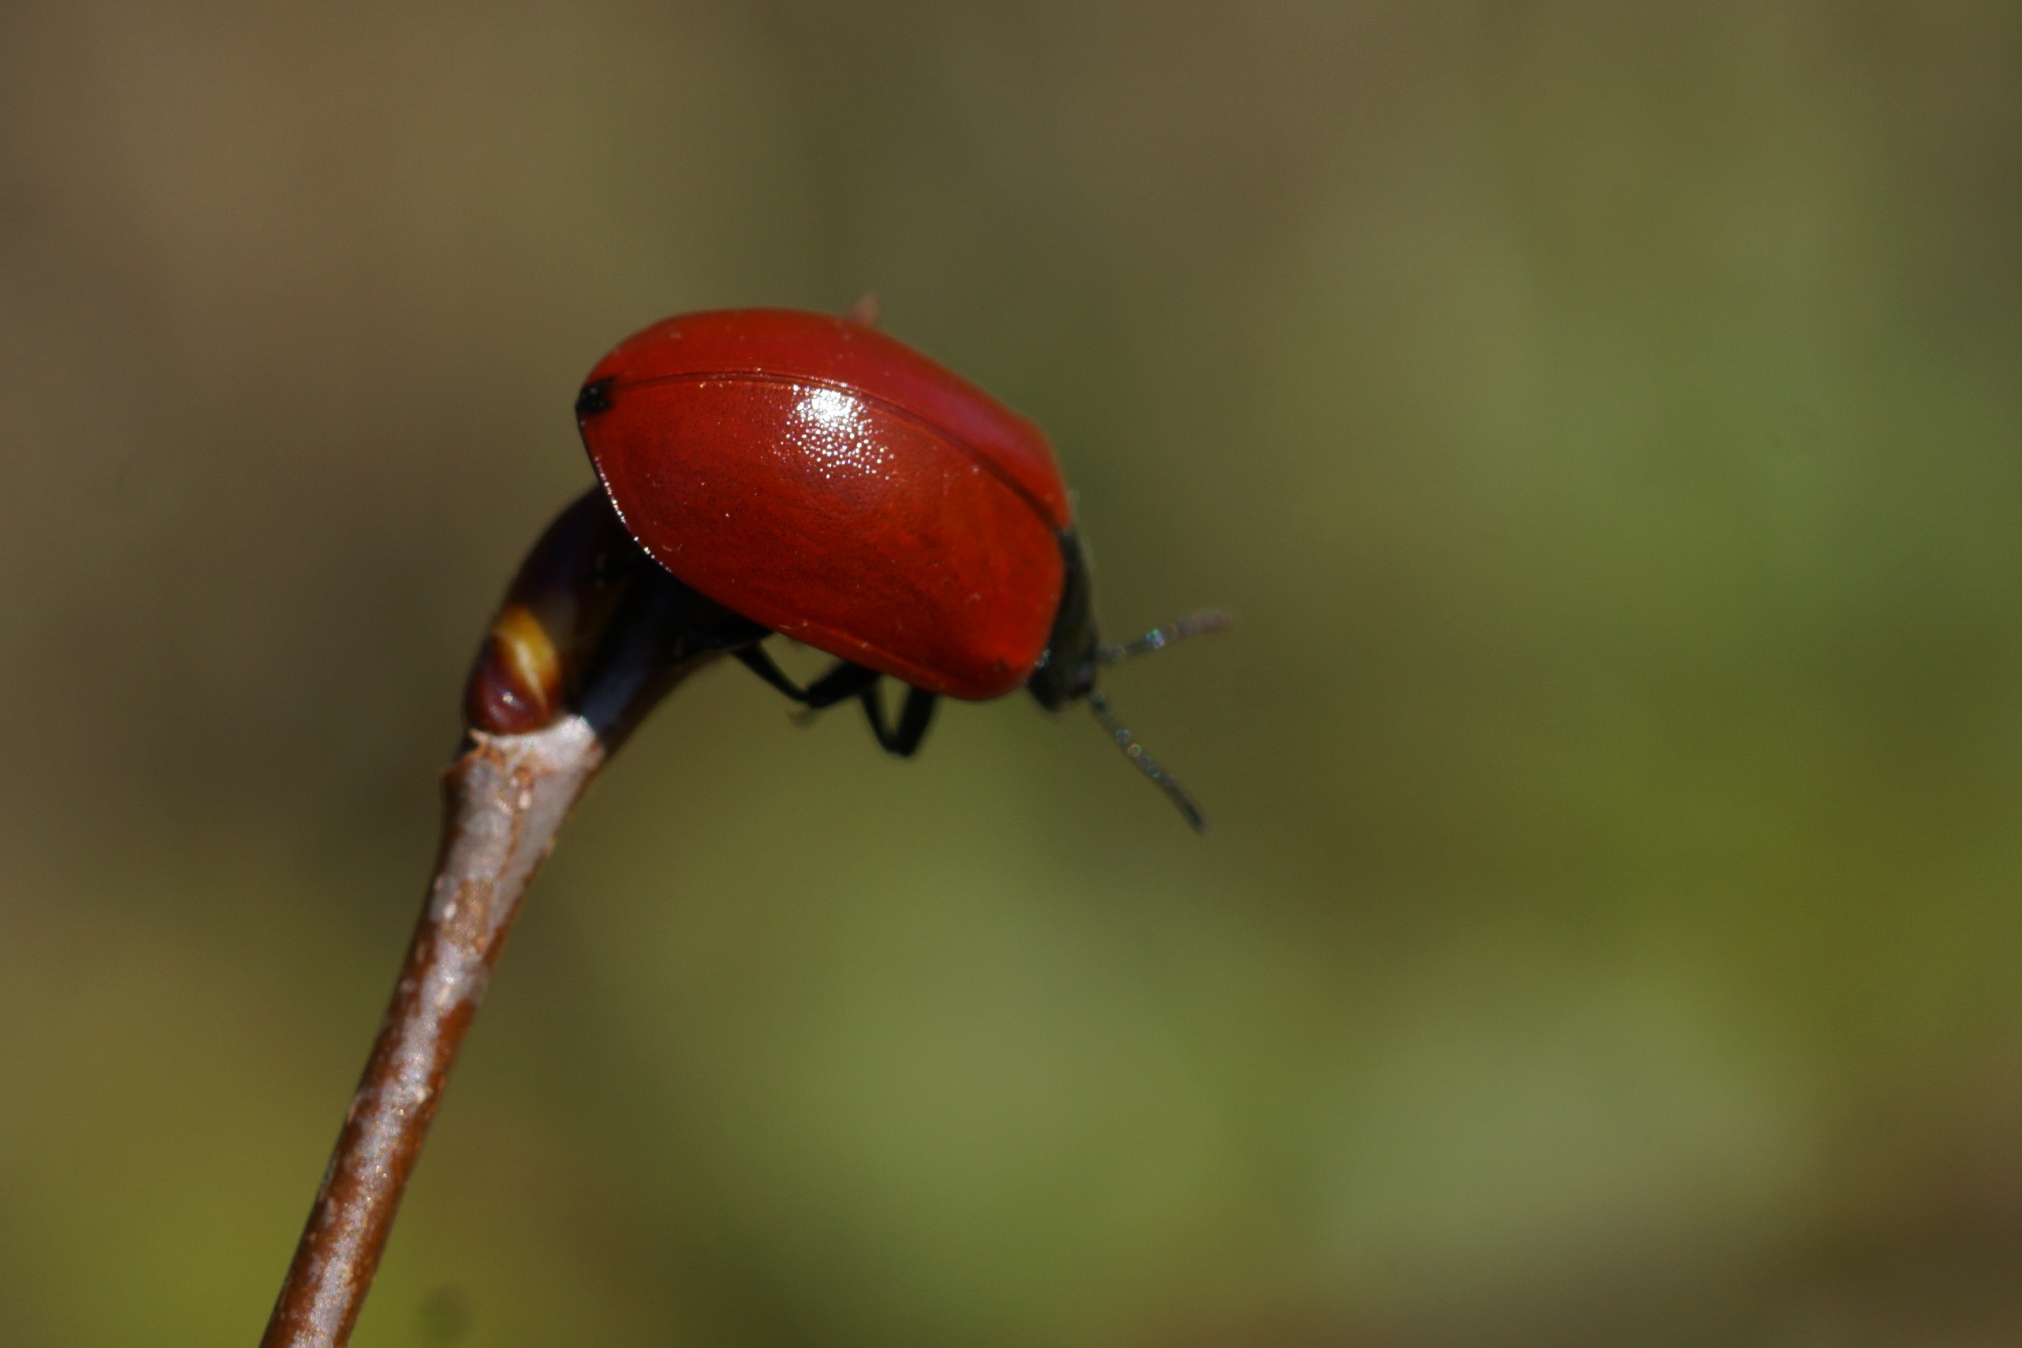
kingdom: Animalia
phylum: Arthropoda
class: Insecta
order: Coleoptera
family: Chrysomelidae
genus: Chrysomela
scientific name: Chrysomela populi
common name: Poppelbladbille
